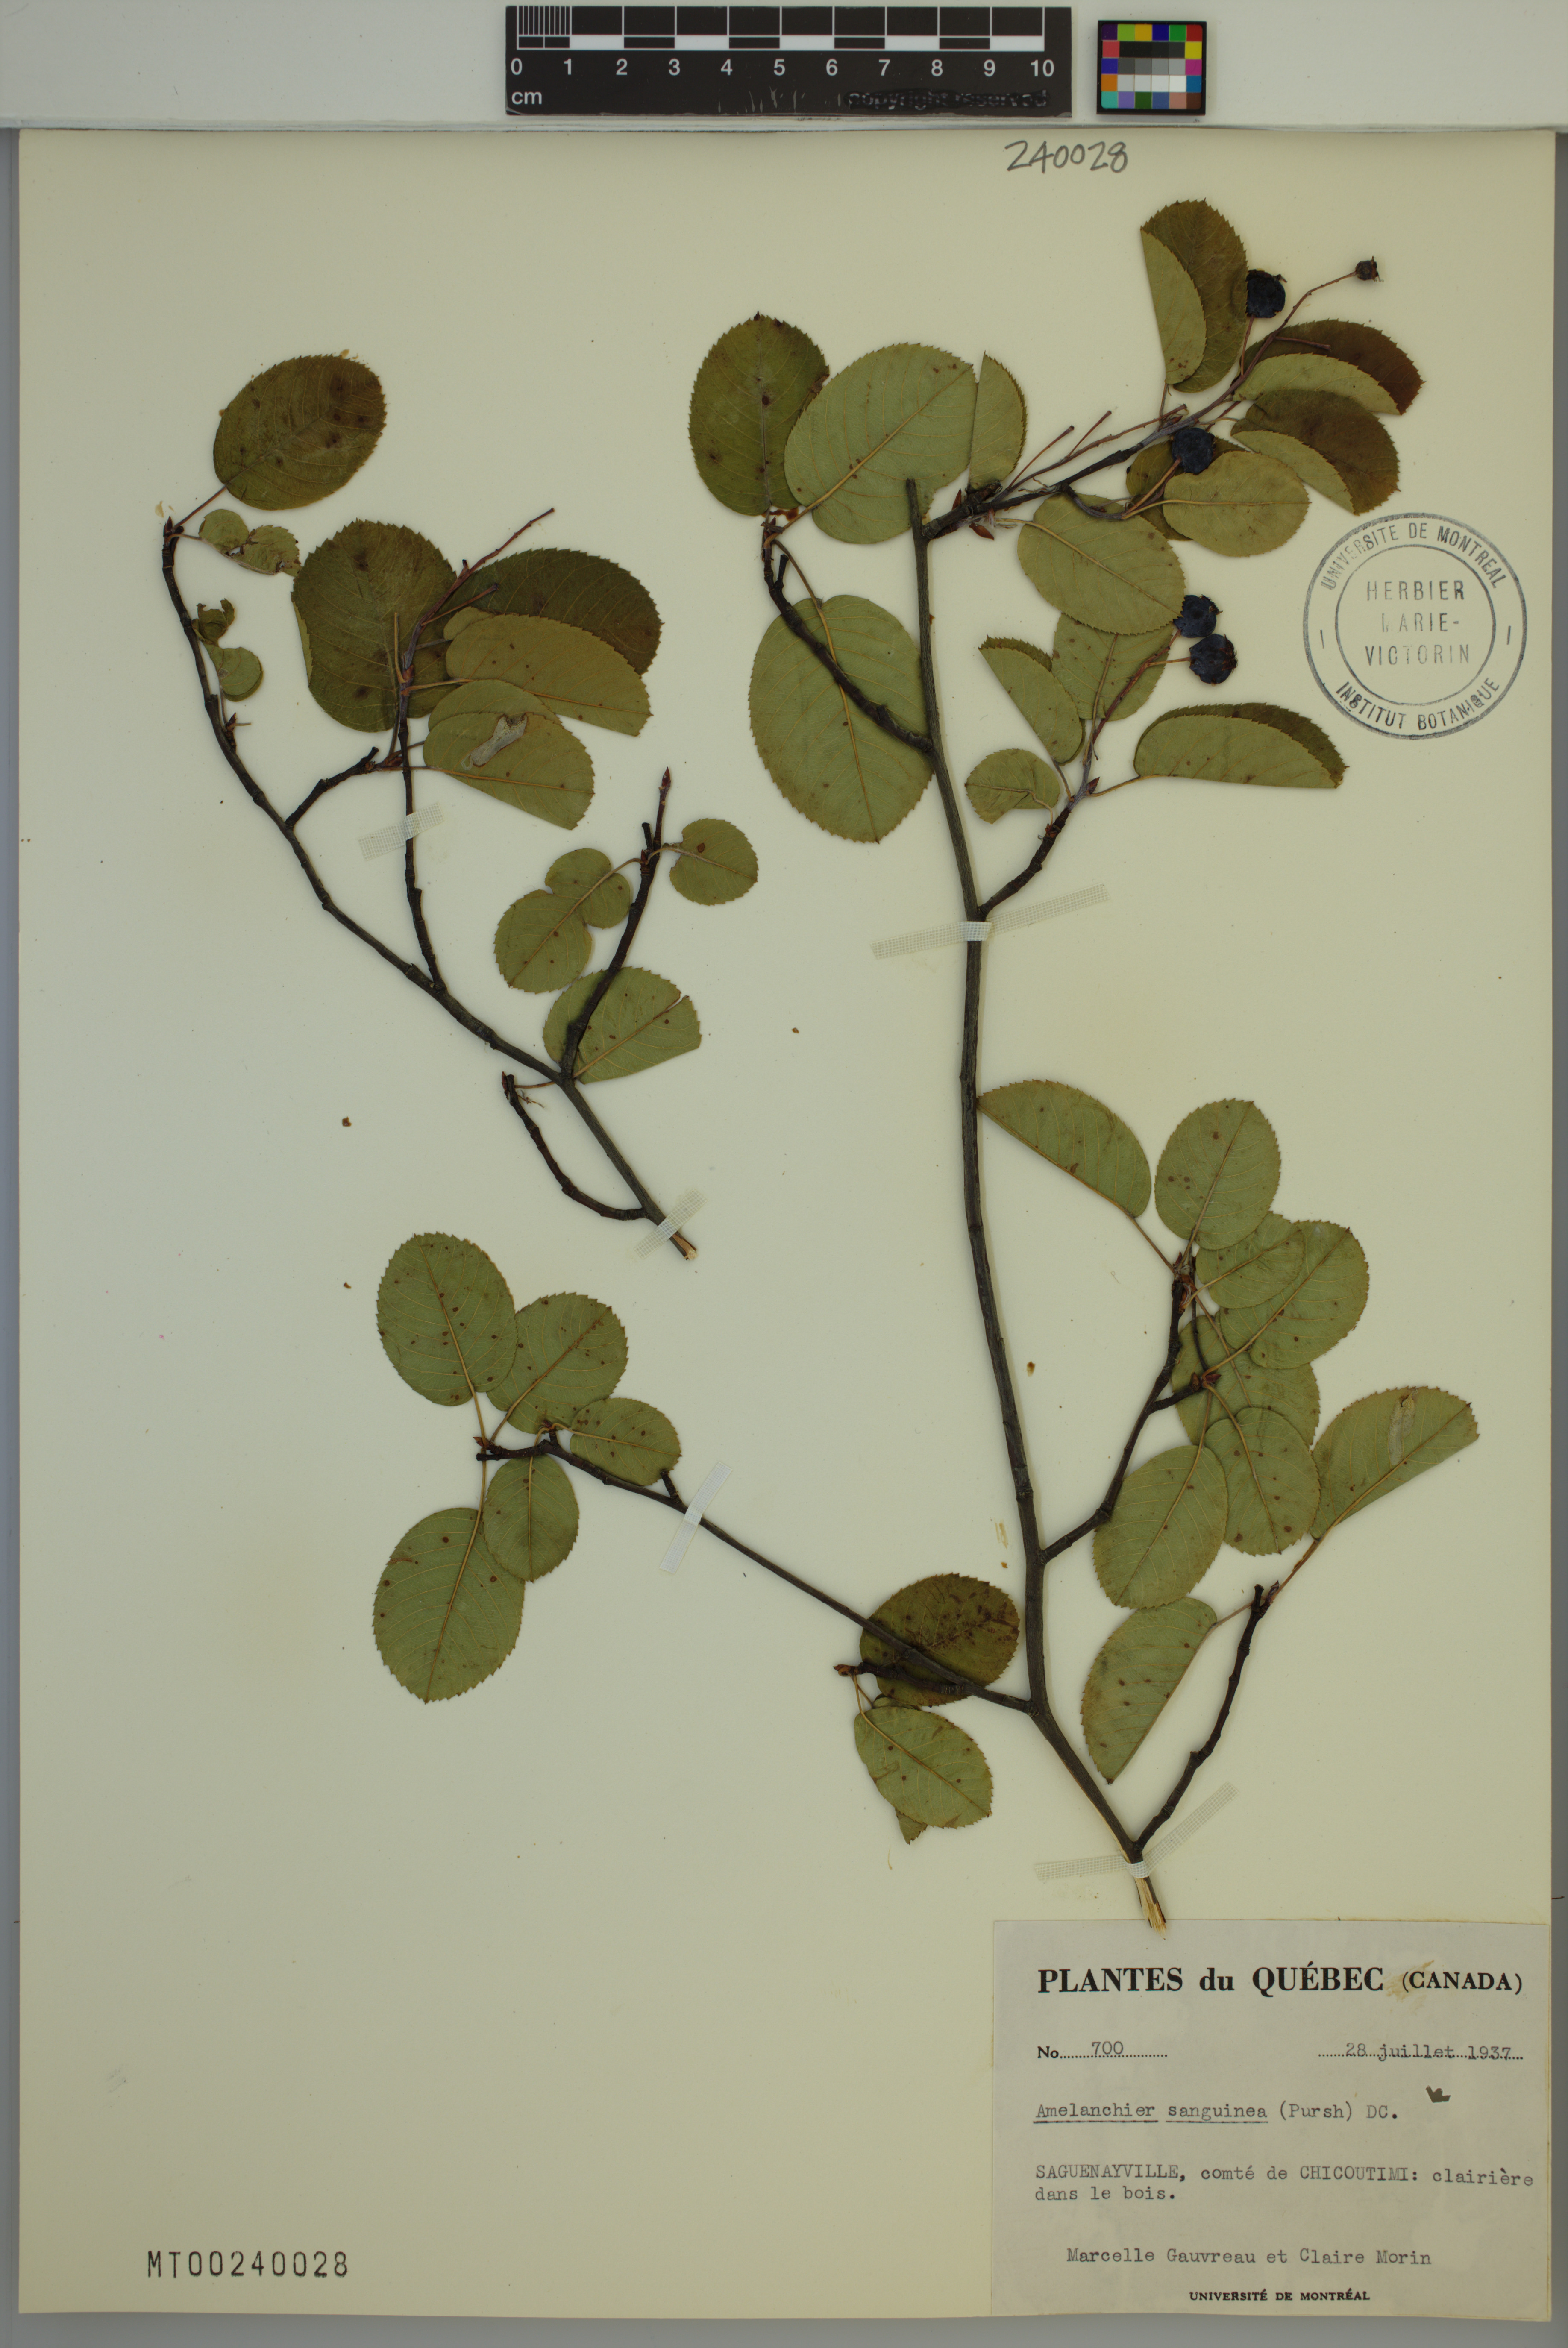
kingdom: Plantae
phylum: Tracheophyta
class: Magnoliopsida
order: Rosales
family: Rosaceae
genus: Amelanchier
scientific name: Amelanchier sanguinea
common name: Huron serviceberry
